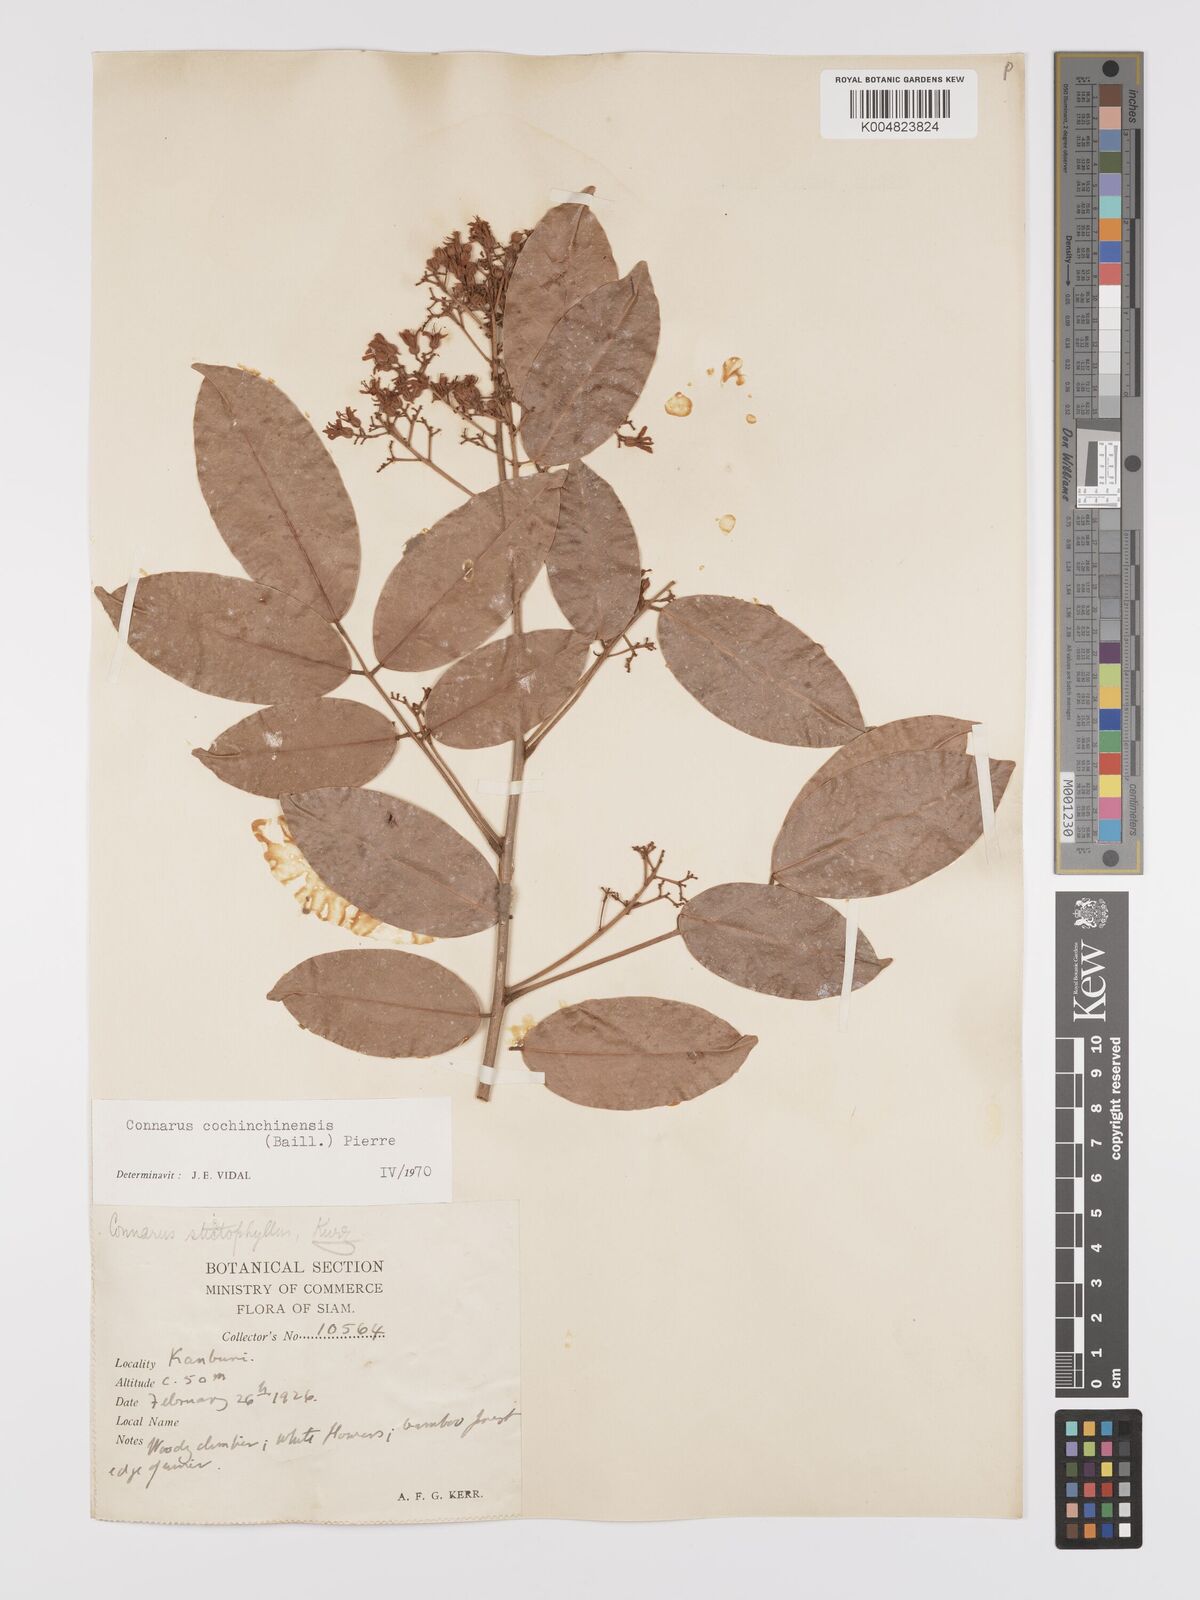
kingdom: Plantae
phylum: Tracheophyta
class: Magnoliopsida
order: Oxalidales
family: Connaraceae
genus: Connarus
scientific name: Connarus cochinchinensis
